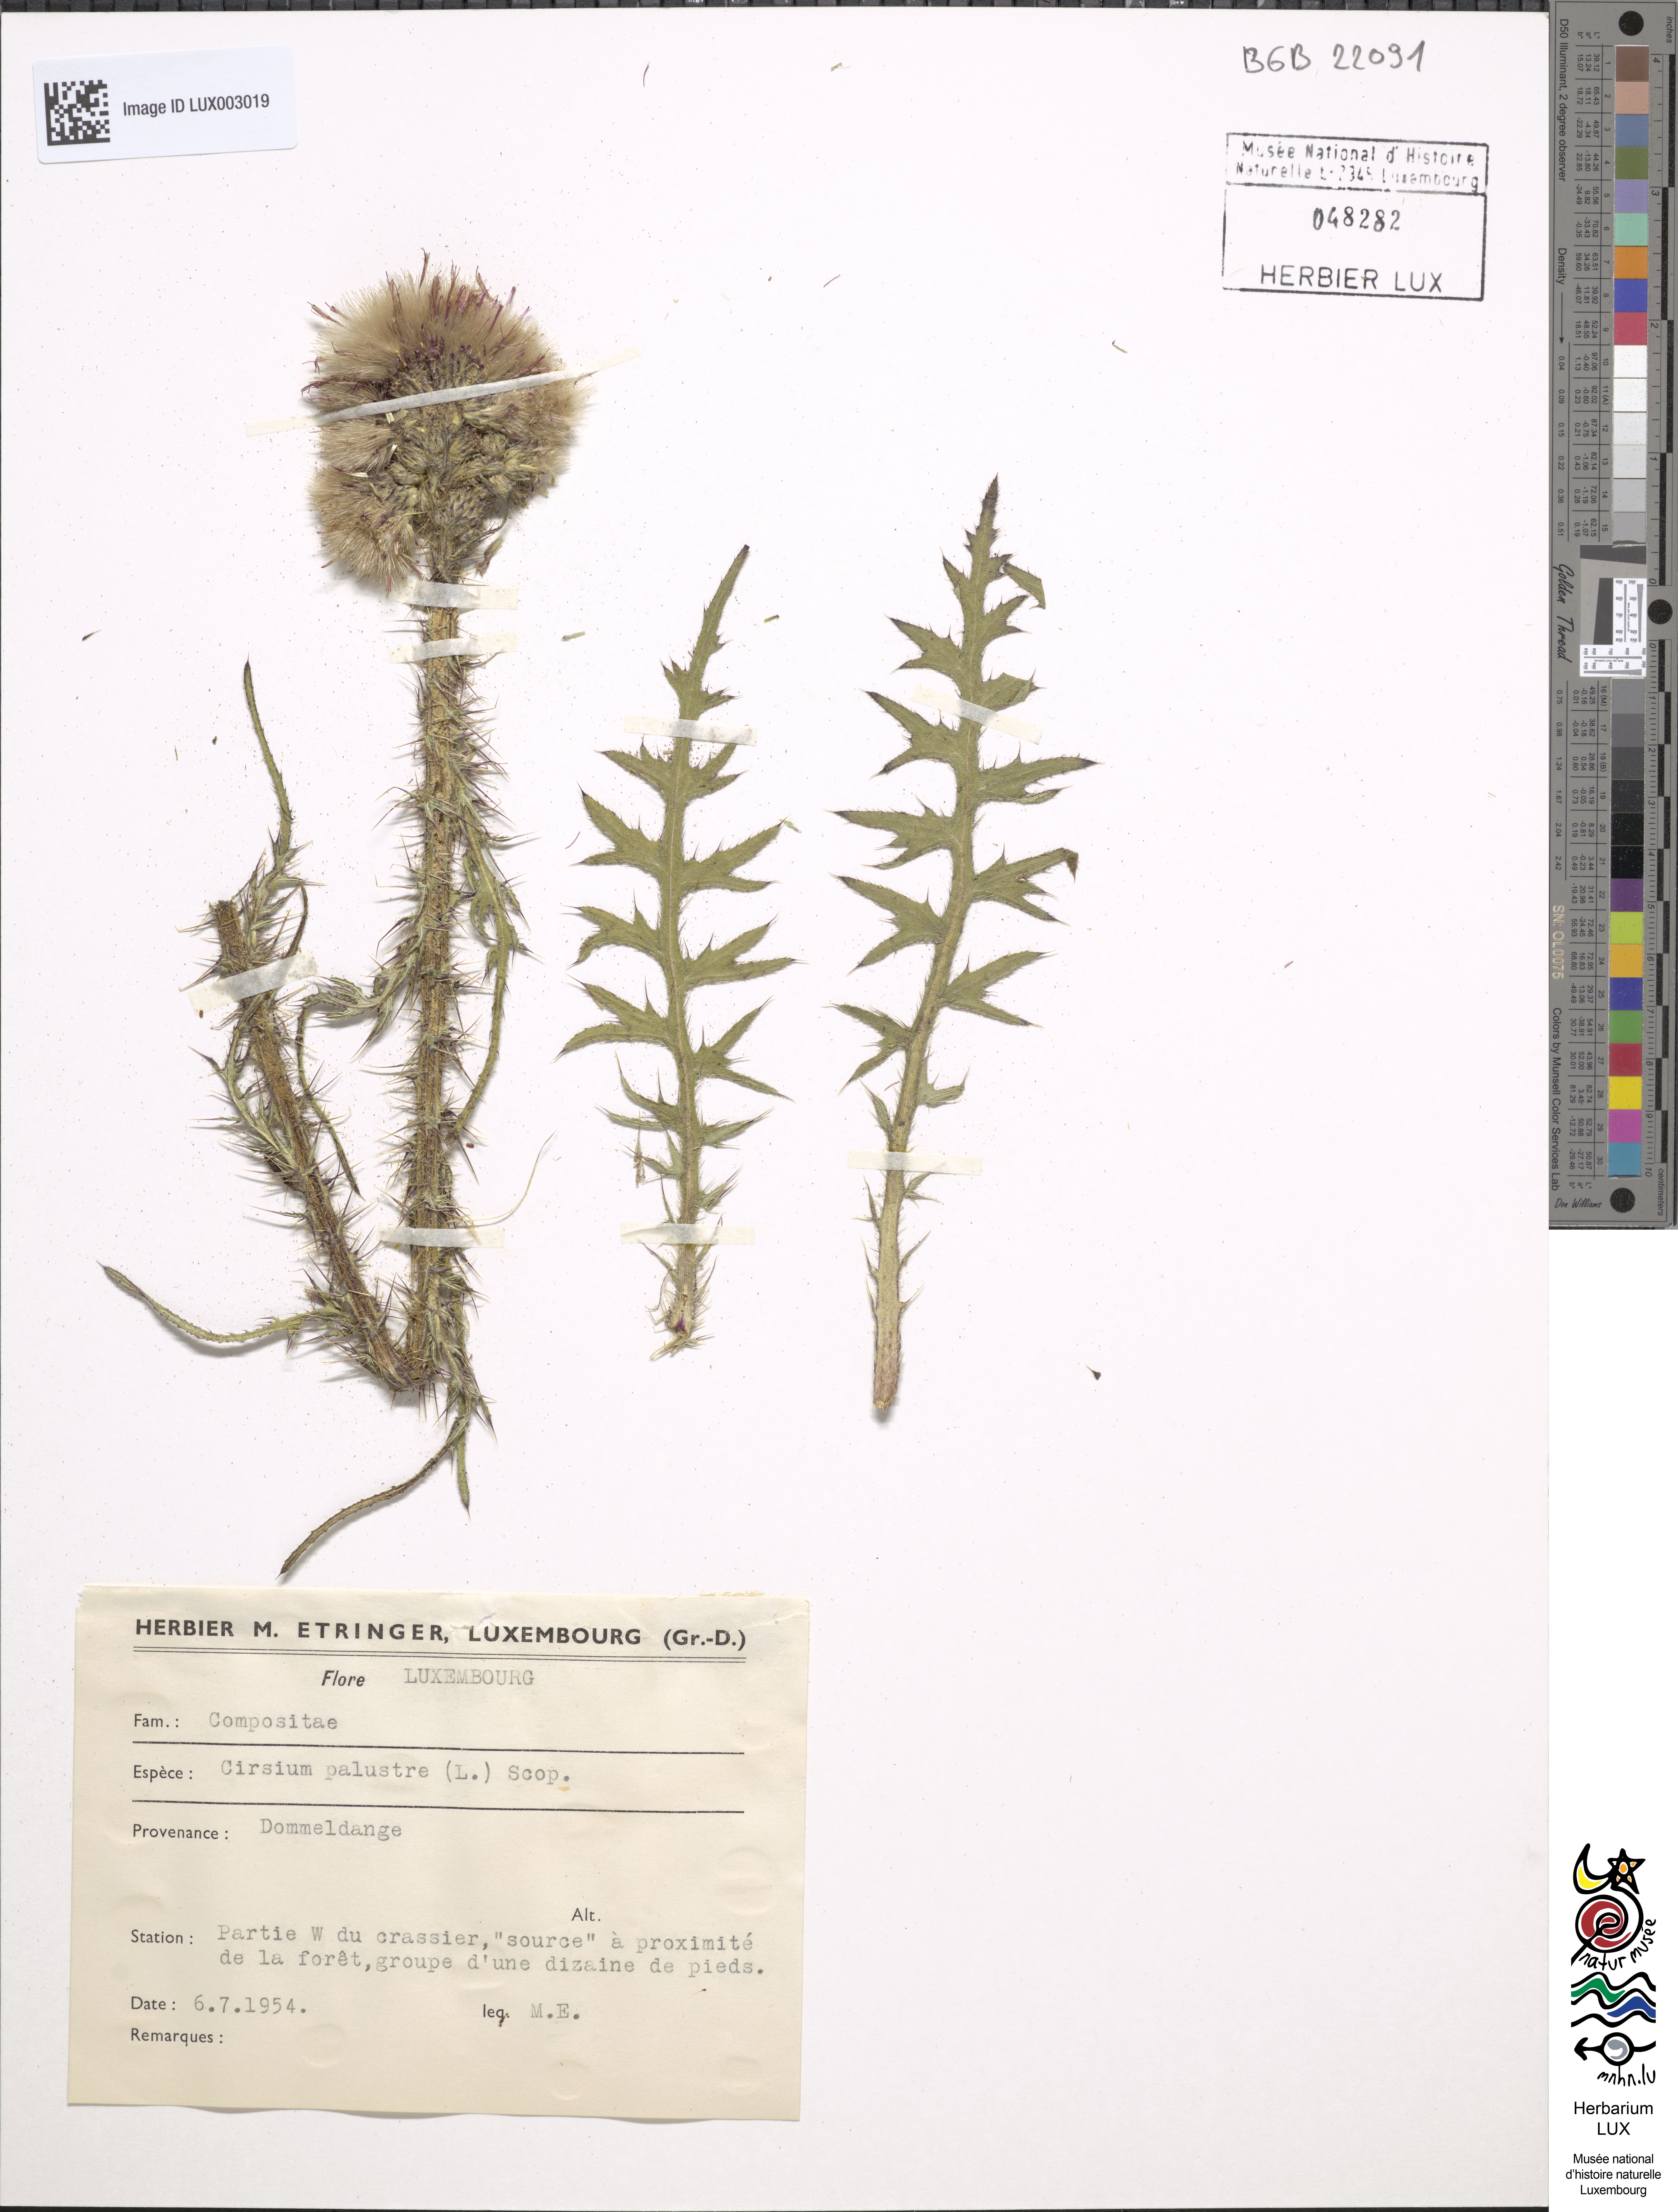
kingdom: Plantae
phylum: Tracheophyta
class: Magnoliopsida
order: Asterales
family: Asteraceae
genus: Cirsium
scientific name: Cirsium palustre
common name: Marsh thistle
